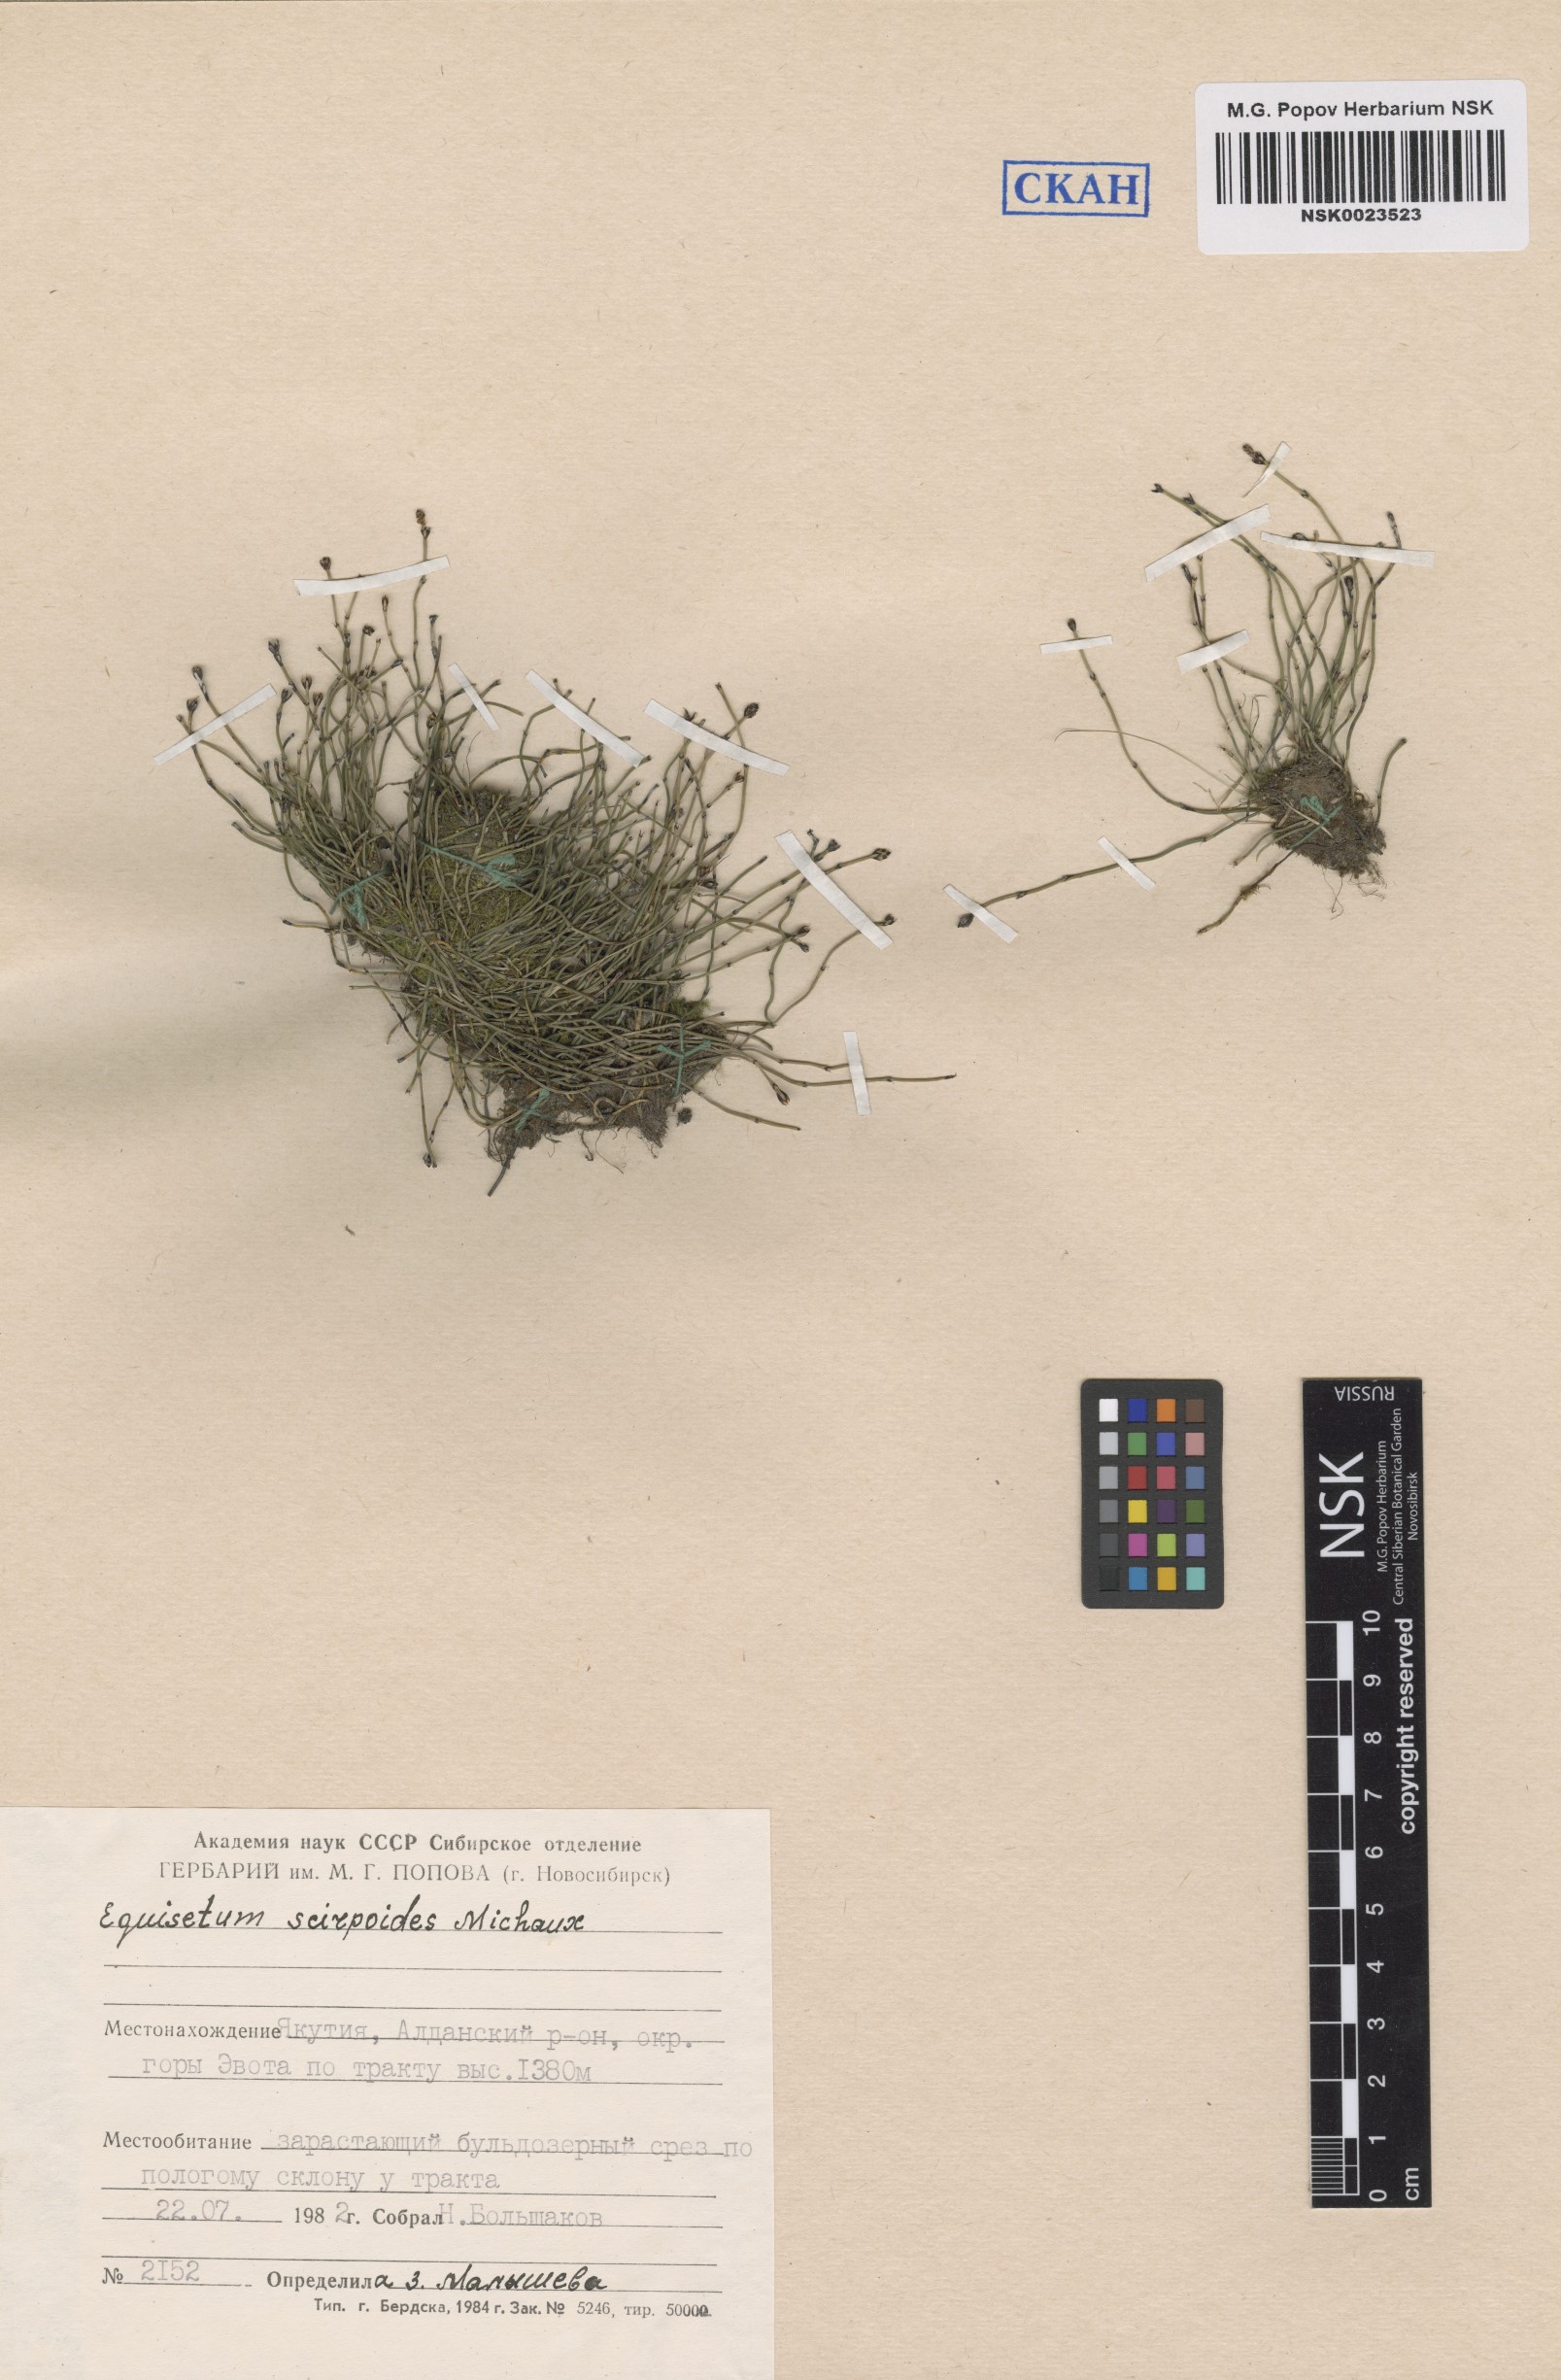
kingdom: Plantae
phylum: Tracheophyta
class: Polypodiopsida
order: Equisetales
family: Equisetaceae
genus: Equisetum
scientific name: Equisetum scirpoides
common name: Delicate horsetail
